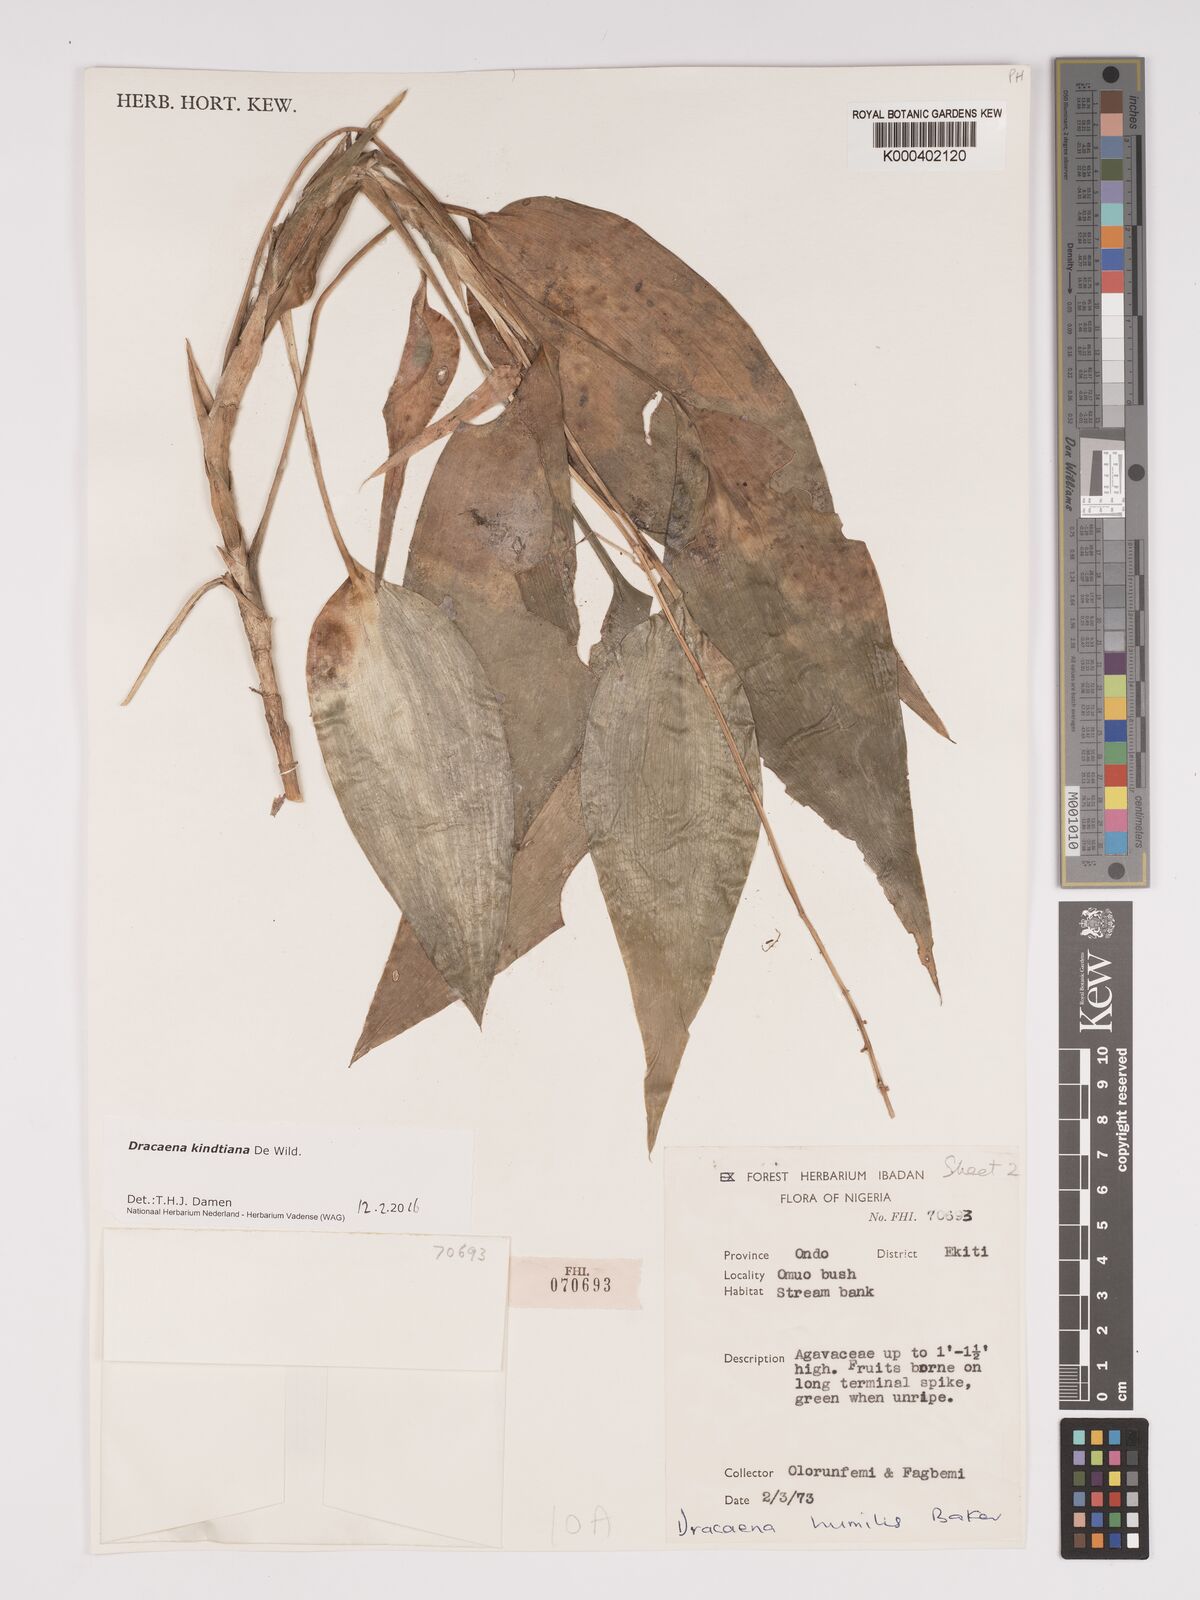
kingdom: Plantae
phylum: Tracheophyta
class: Liliopsida
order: Asparagales
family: Asparagaceae
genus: Dracaena
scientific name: Dracaena kindtiana
